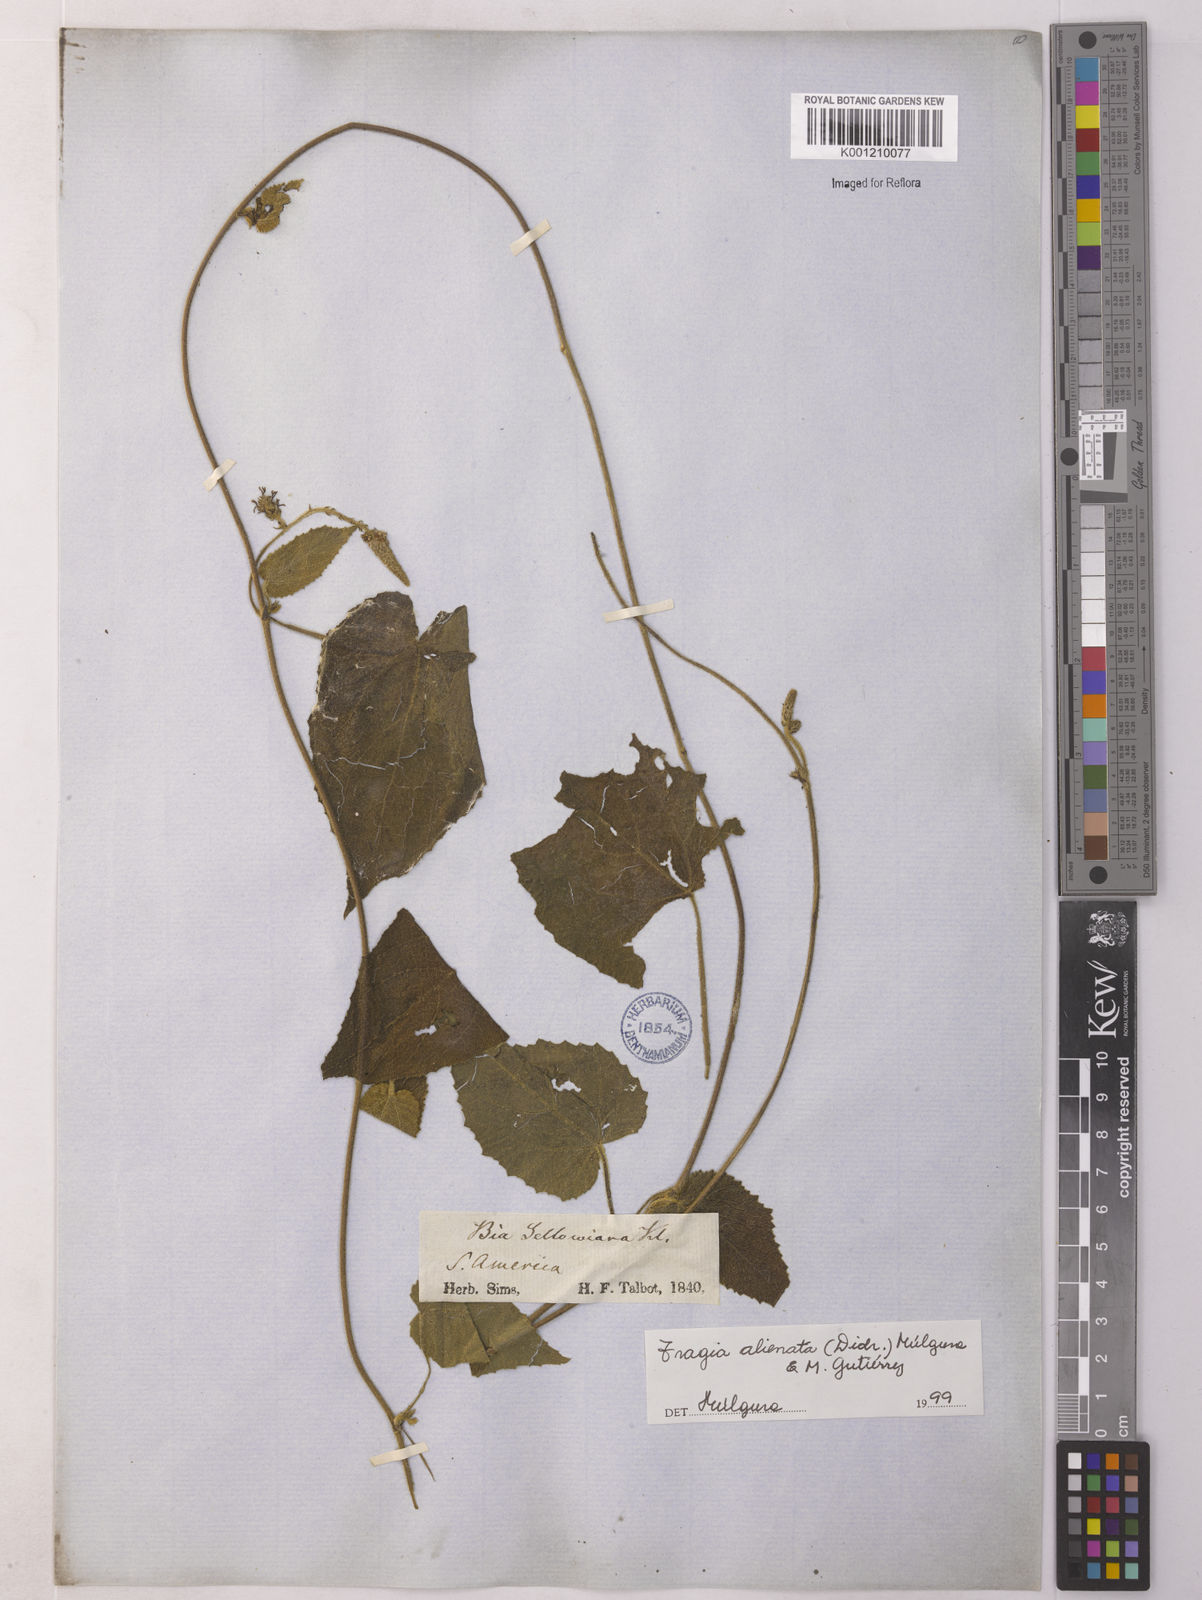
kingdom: Plantae
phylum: Tracheophyta
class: Magnoliopsida
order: Malpighiales
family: Euphorbiaceae
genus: Bia
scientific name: Bia alienata
